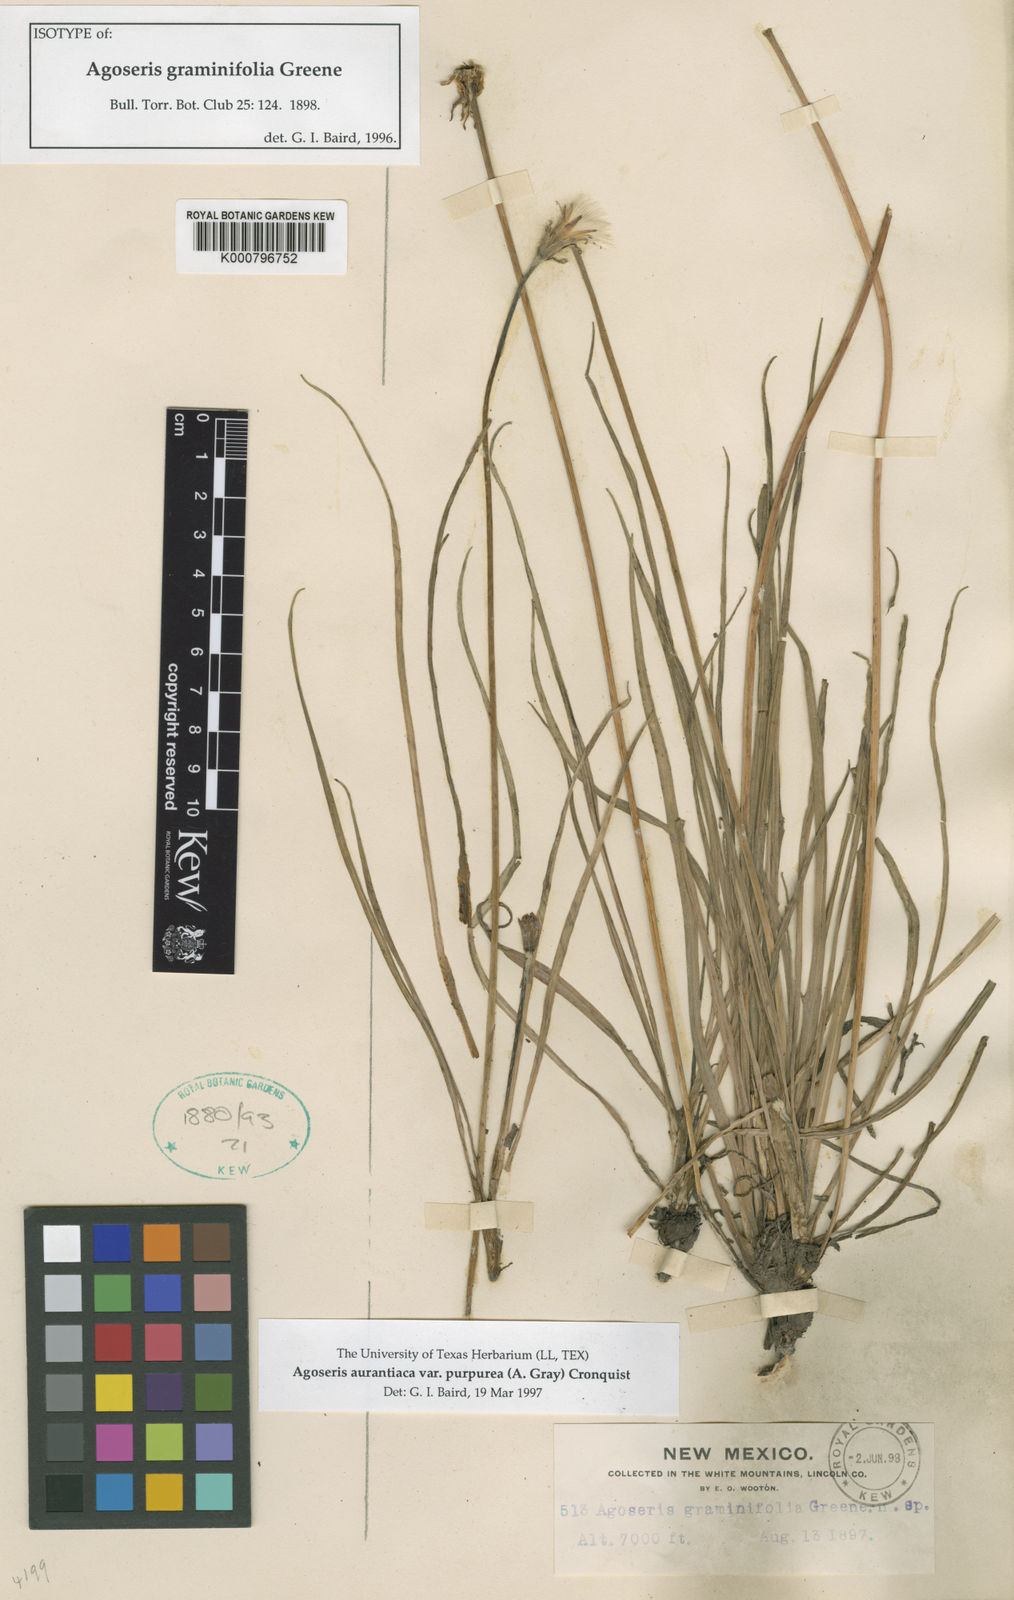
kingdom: Plantae
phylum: Tracheophyta
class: Magnoliopsida
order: Asterales
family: Asteraceae
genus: Agoseris
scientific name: Agoseris aurantiaca
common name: Mountain agoseris
